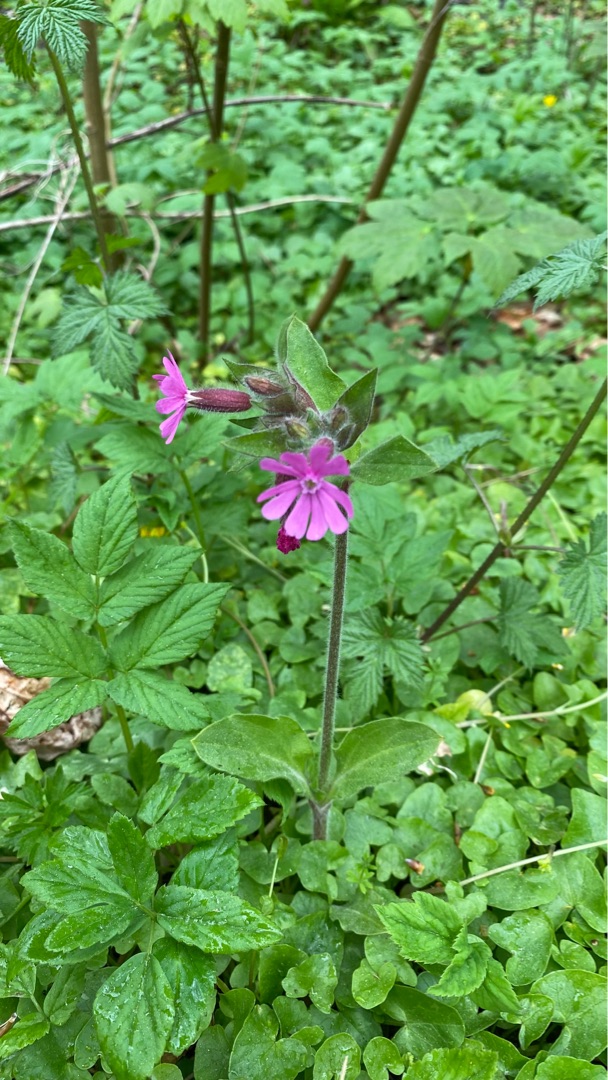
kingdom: Plantae
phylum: Tracheophyta
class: Magnoliopsida
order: Caryophyllales
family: Caryophyllaceae
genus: Silene
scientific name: Silene dioica
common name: Dagpragtstjerne
